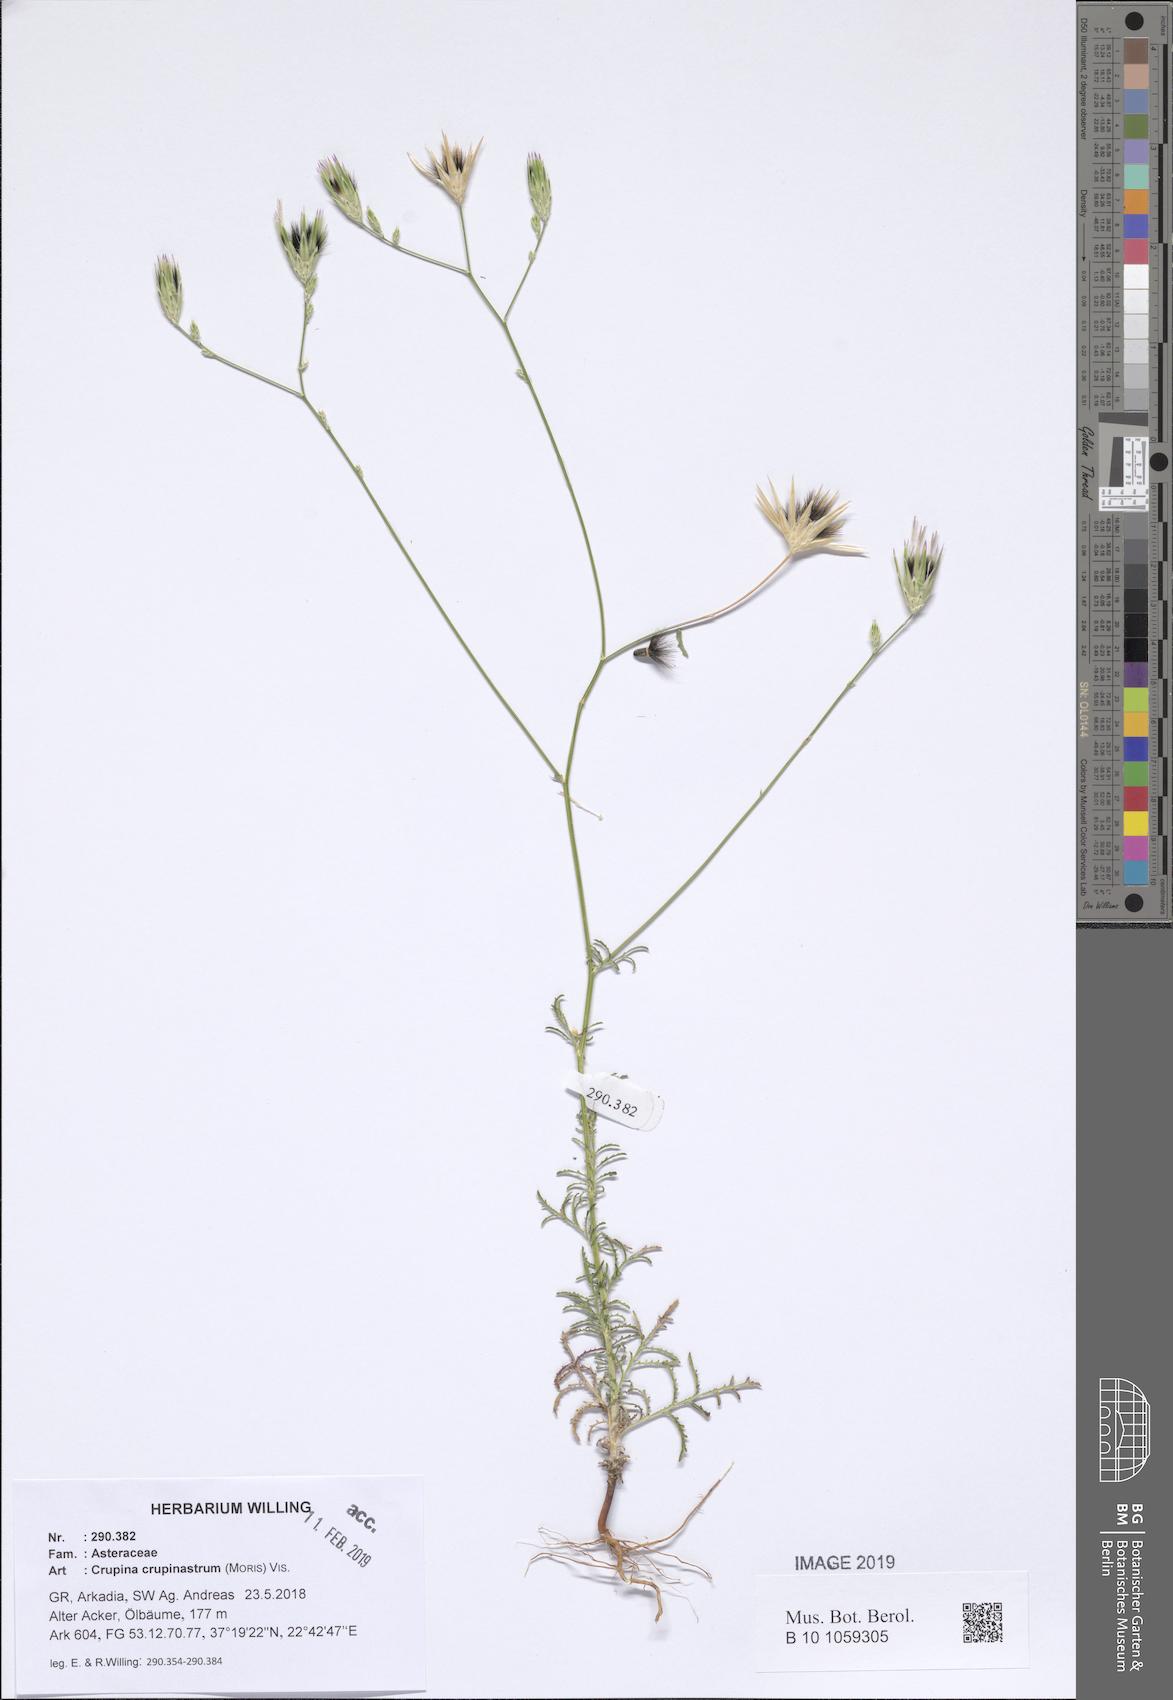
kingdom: Plantae
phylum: Tracheophyta
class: Magnoliopsida
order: Asterales
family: Asteraceae
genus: Crupina
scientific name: Crupina crupinastrum
